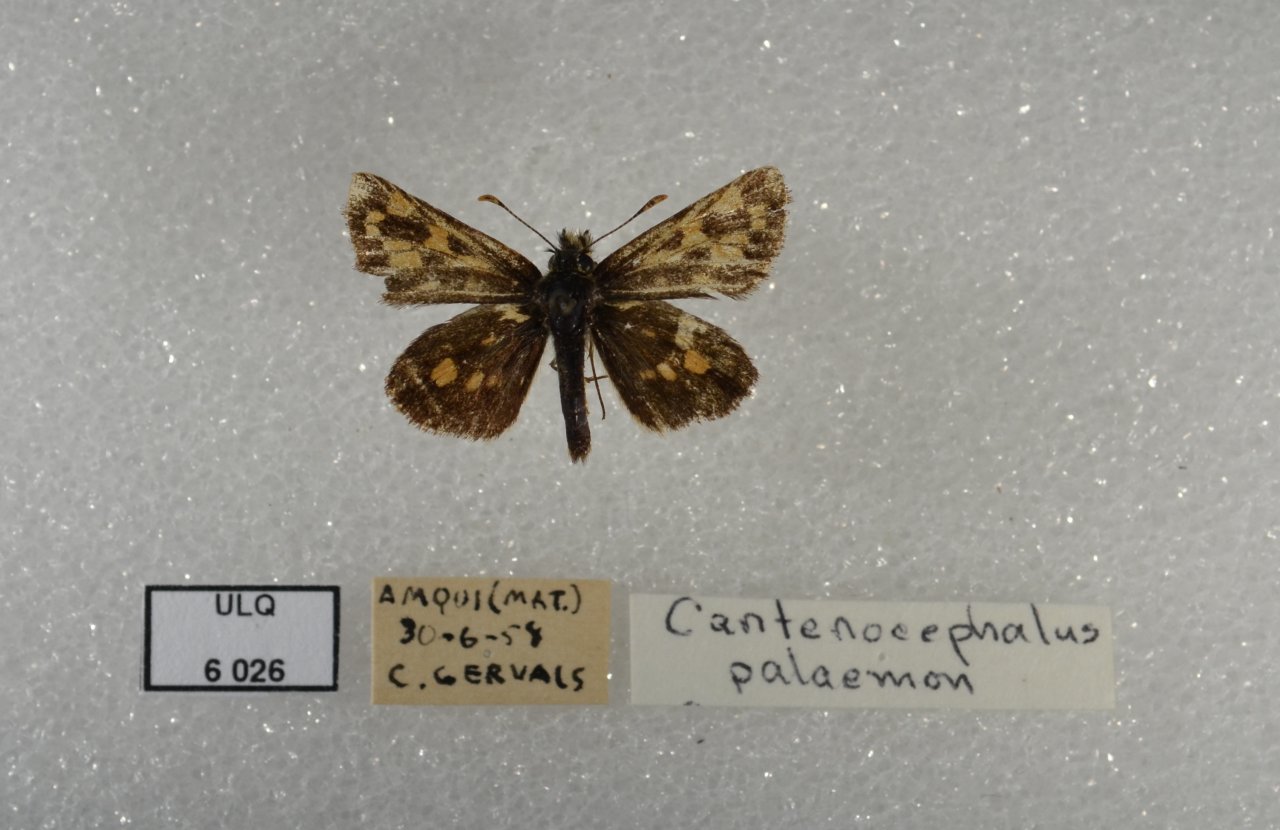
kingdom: Animalia
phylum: Arthropoda
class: Insecta
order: Lepidoptera
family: Hesperiidae
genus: Carterocephalus
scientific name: Carterocephalus palaemon
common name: Chequered Skipper
